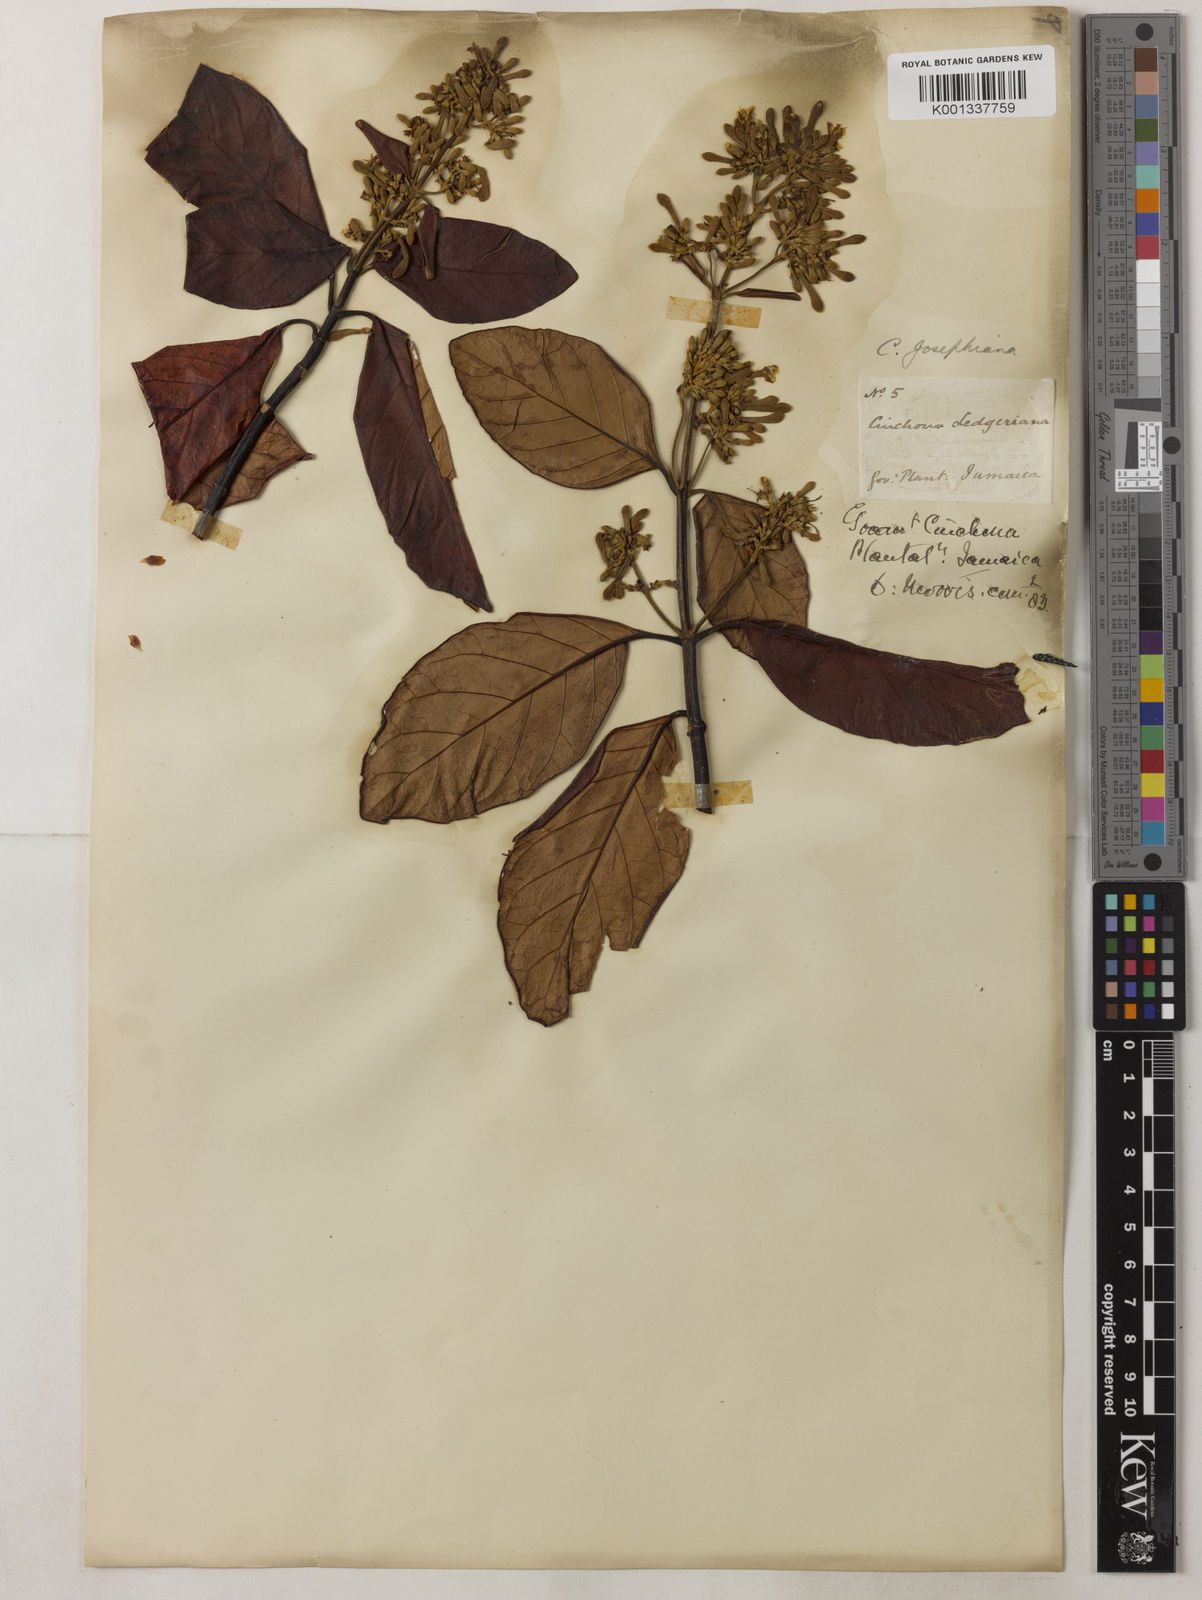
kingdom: Plantae
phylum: Tracheophyta
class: Magnoliopsida
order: Gentianales
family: Rubiaceae
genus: Cinchona
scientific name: Cinchona calisaya
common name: Ledgerbark
